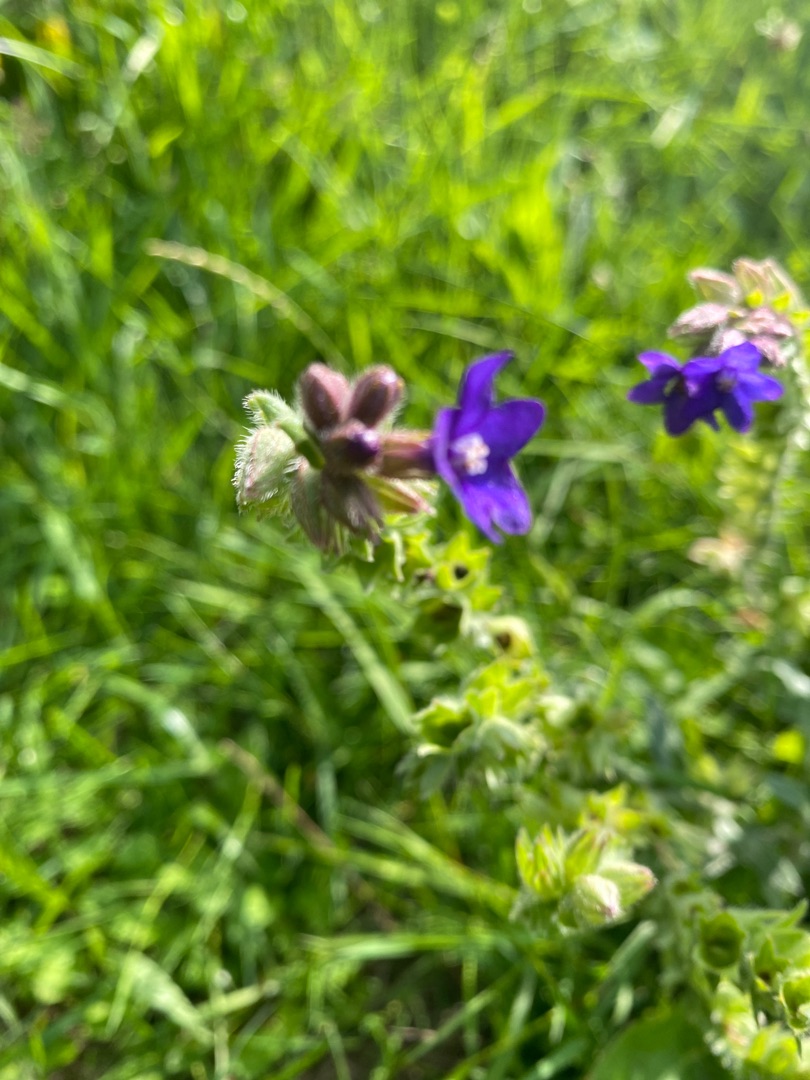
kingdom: Plantae
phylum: Tracheophyta
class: Magnoliopsida
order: Boraginales
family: Boraginaceae
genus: Anchusa
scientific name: Anchusa officinalis
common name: Læge-oksetunge
